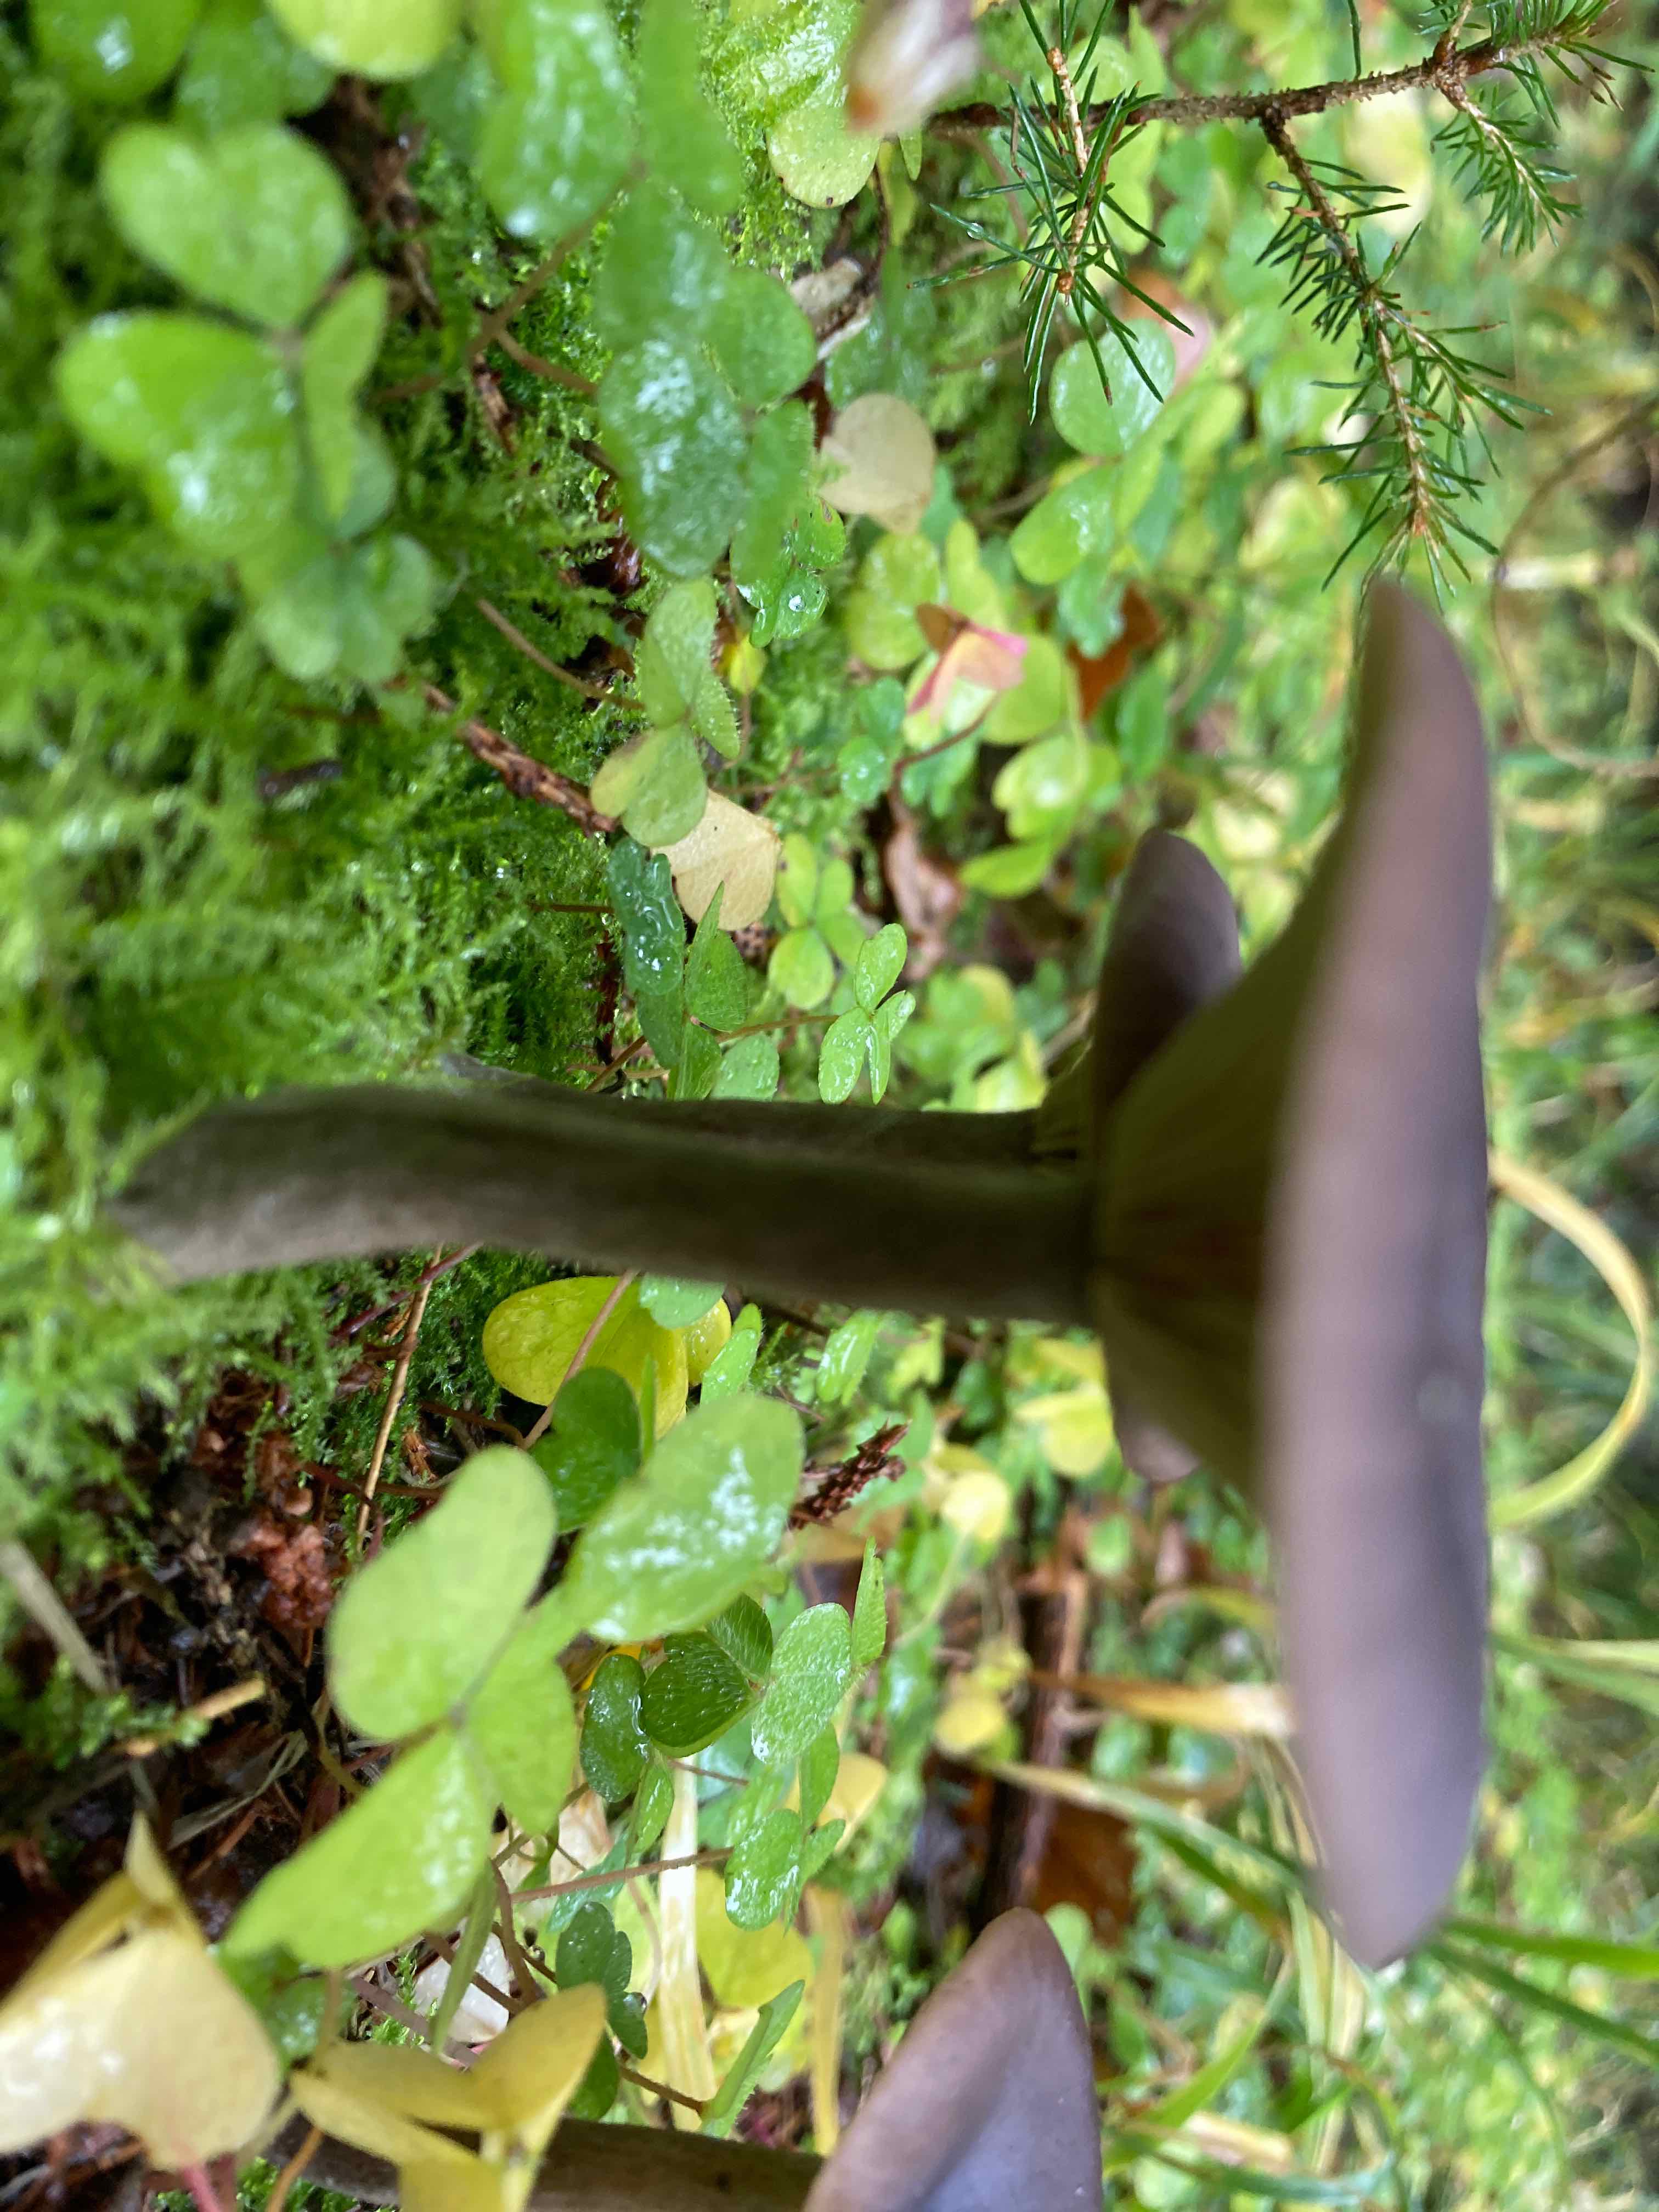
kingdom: Fungi
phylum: Basidiomycota
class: Agaricomycetes
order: Agaricales
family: Pseudoclitocybaceae
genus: Pseudoclitocybe
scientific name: Pseudoclitocybe cyathiformis
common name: almindelig bægertragthat
